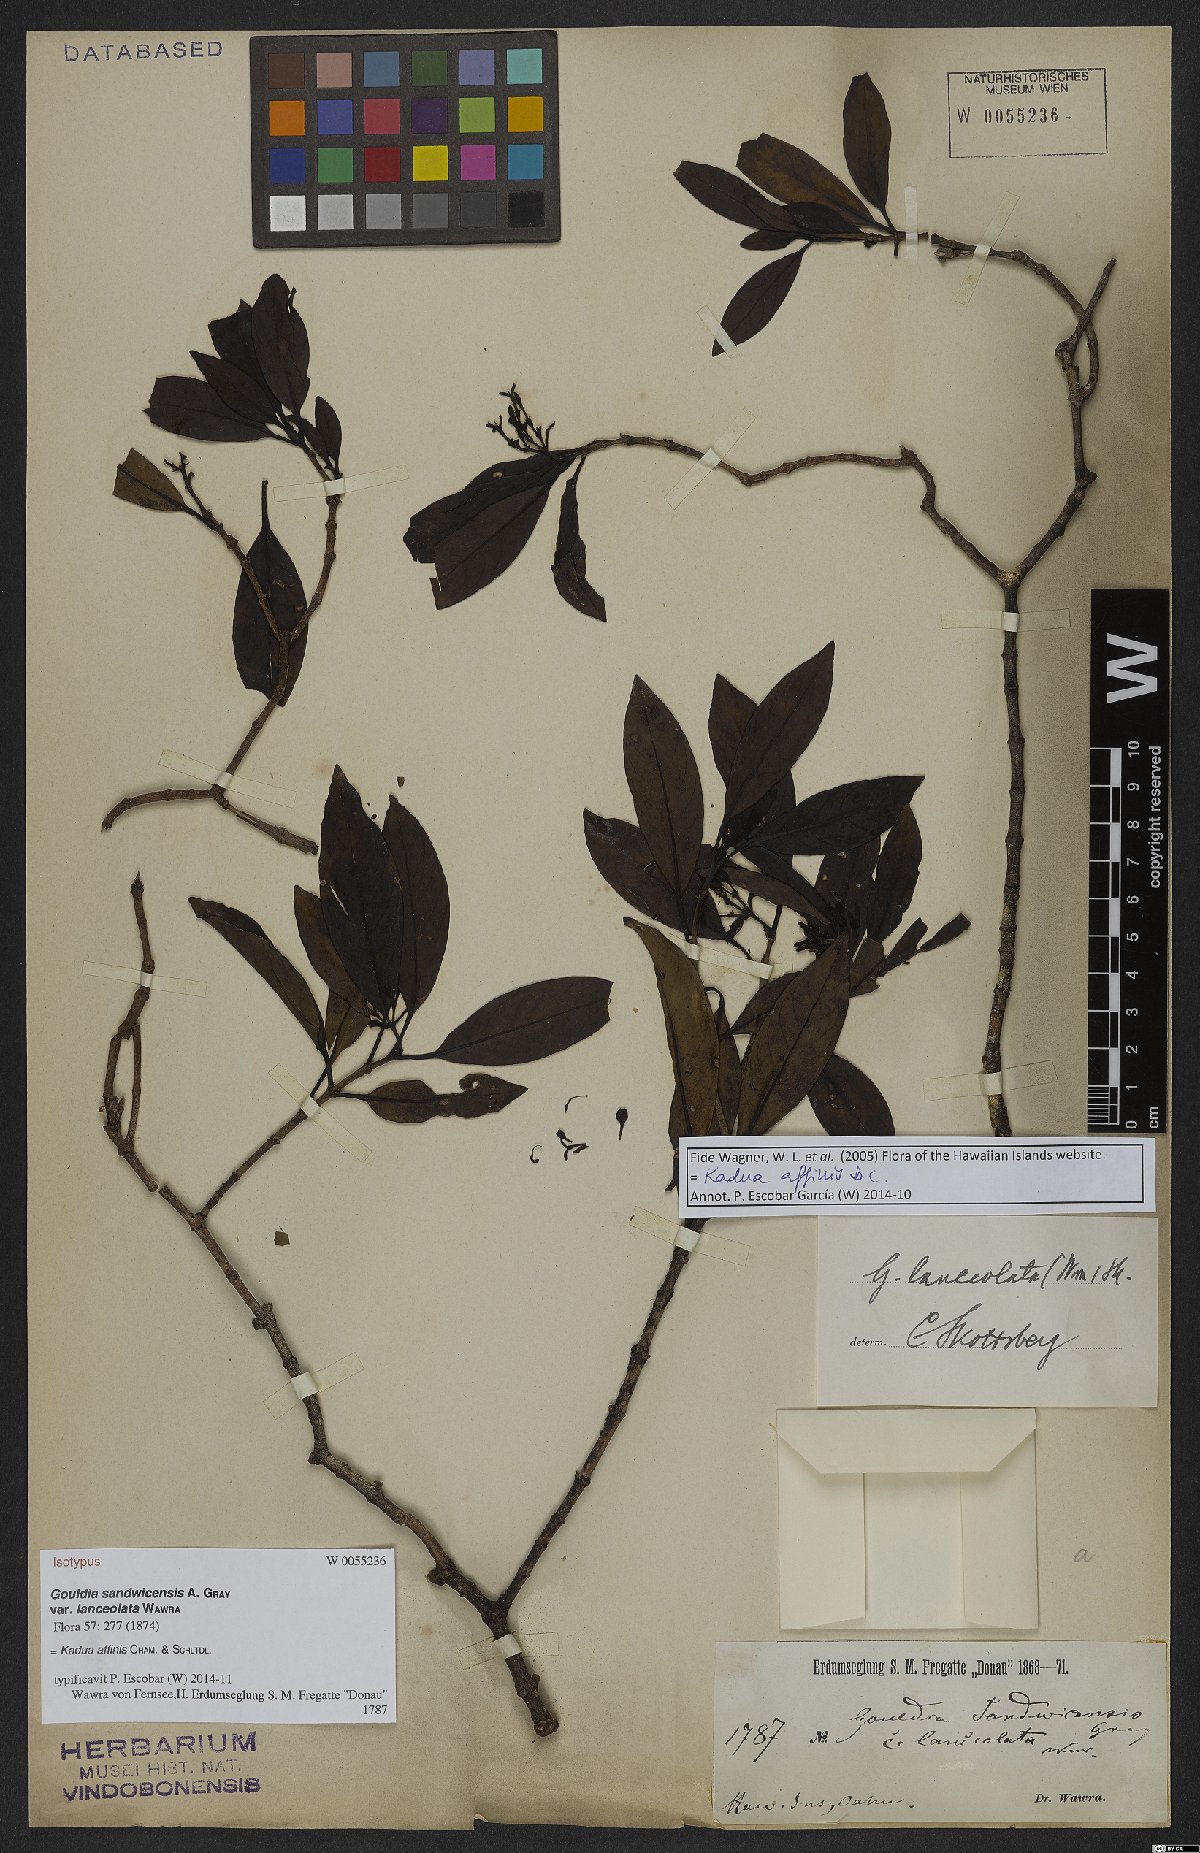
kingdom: Plantae
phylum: Tracheophyta
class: Magnoliopsida
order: Gentianales
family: Rubiaceae
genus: Kadua
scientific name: Kadua affinis
